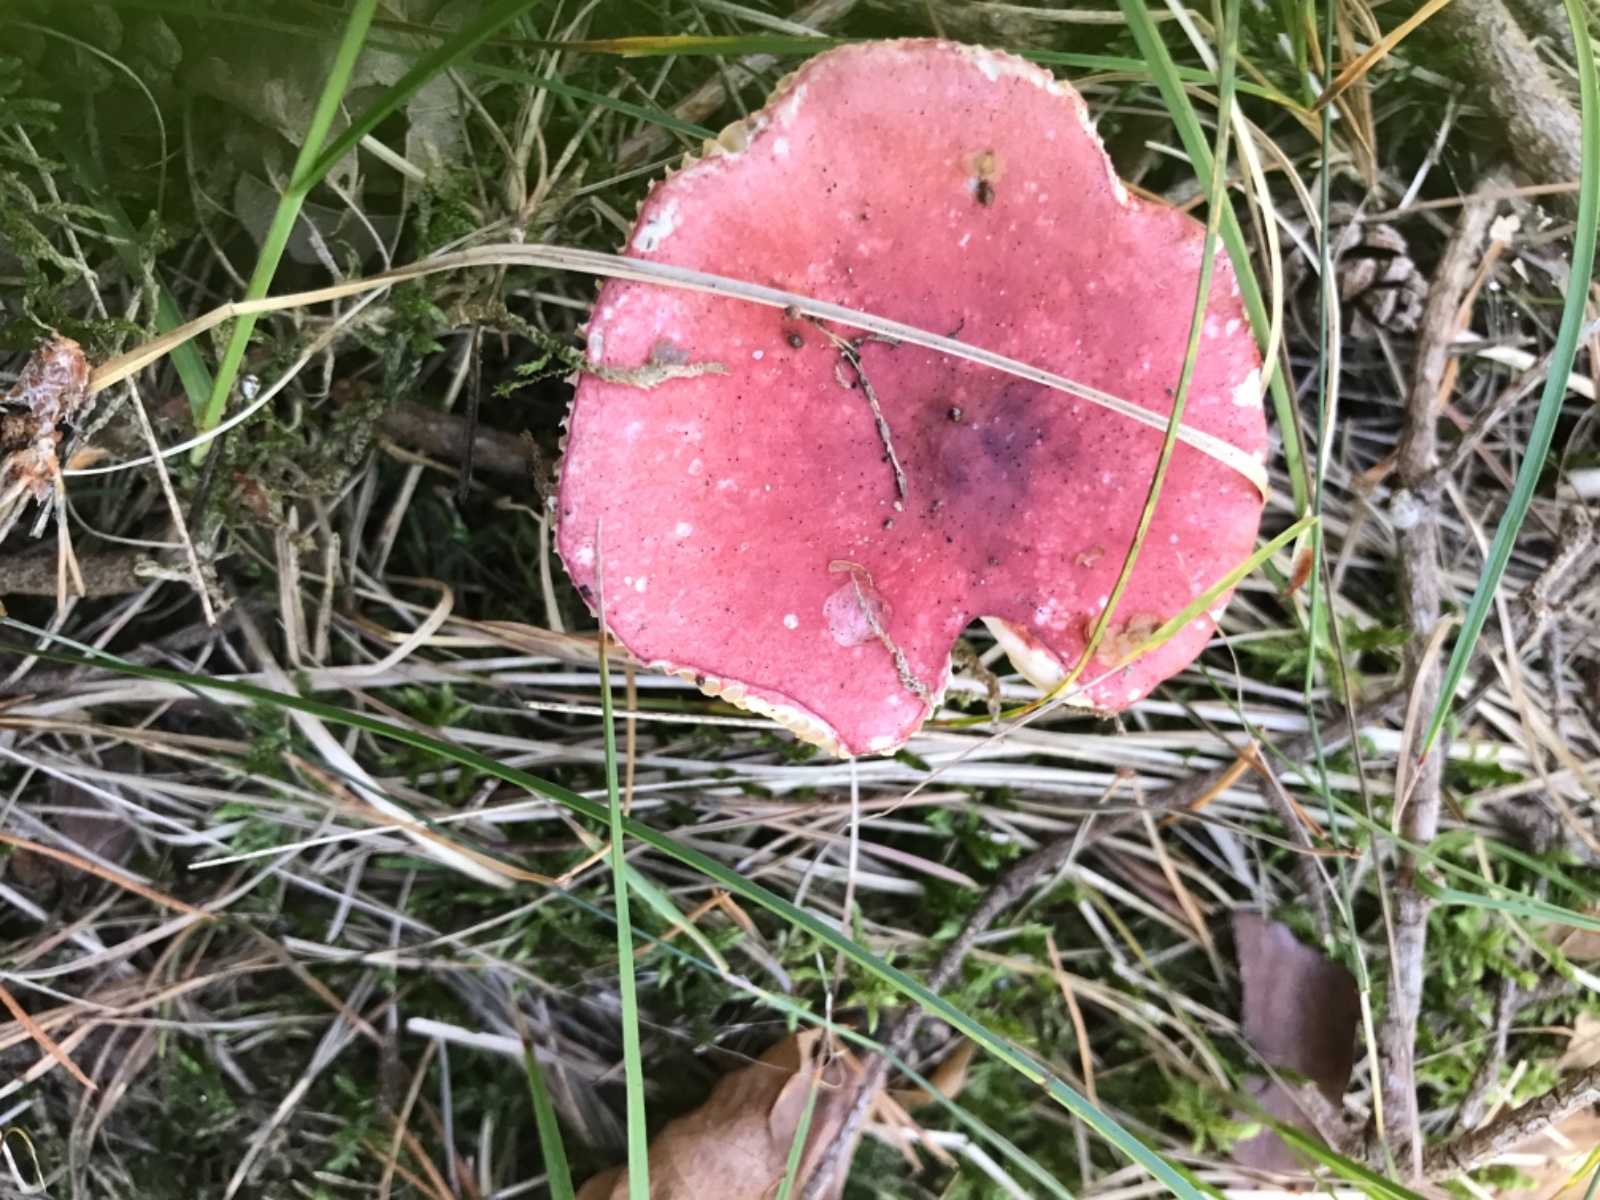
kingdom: Fungi
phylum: Basidiomycota
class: Agaricomycetes
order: Russulales
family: Russulaceae
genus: Russula
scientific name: Russula sanguinea
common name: blodrød skørhat
